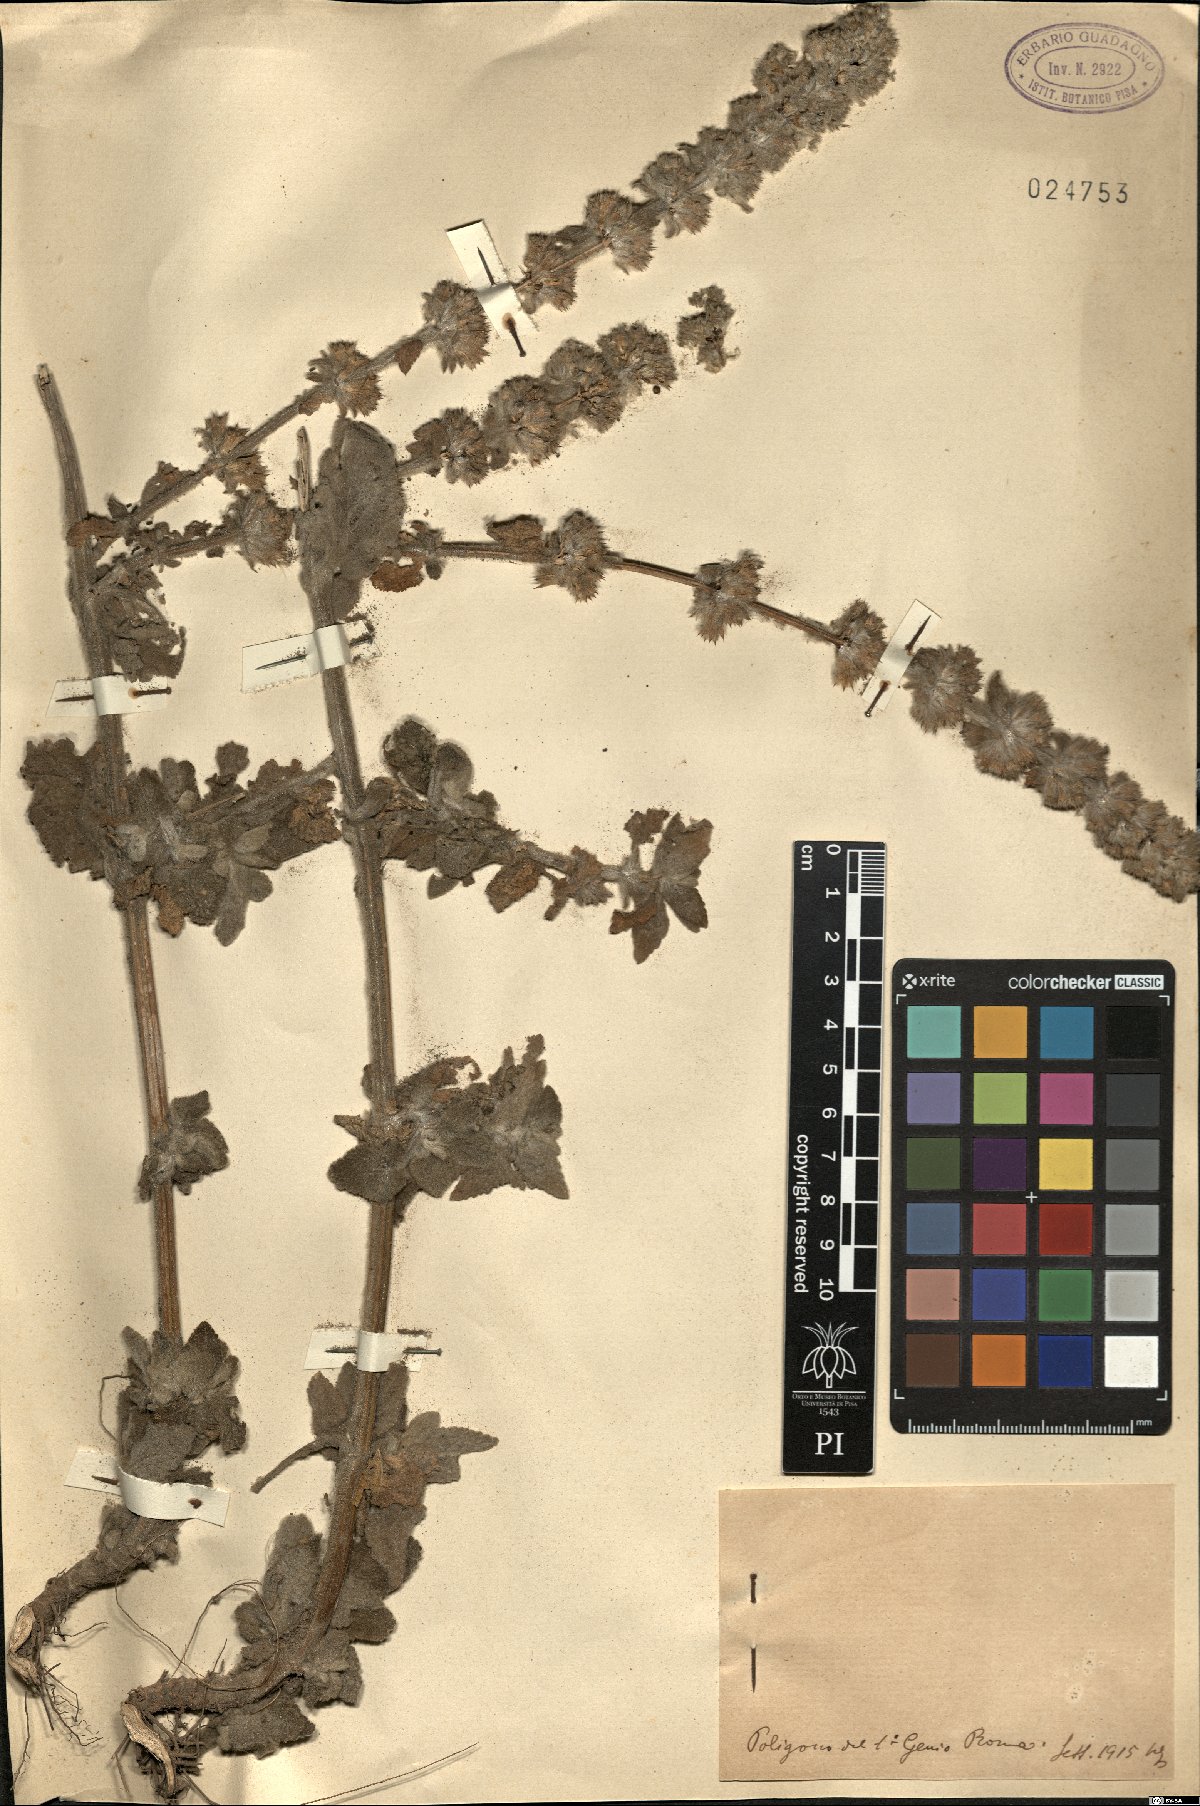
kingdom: Plantae
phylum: Tracheophyta
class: Magnoliopsida
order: Lamiales
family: Lamiaceae
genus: Stachys
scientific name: Stachys
